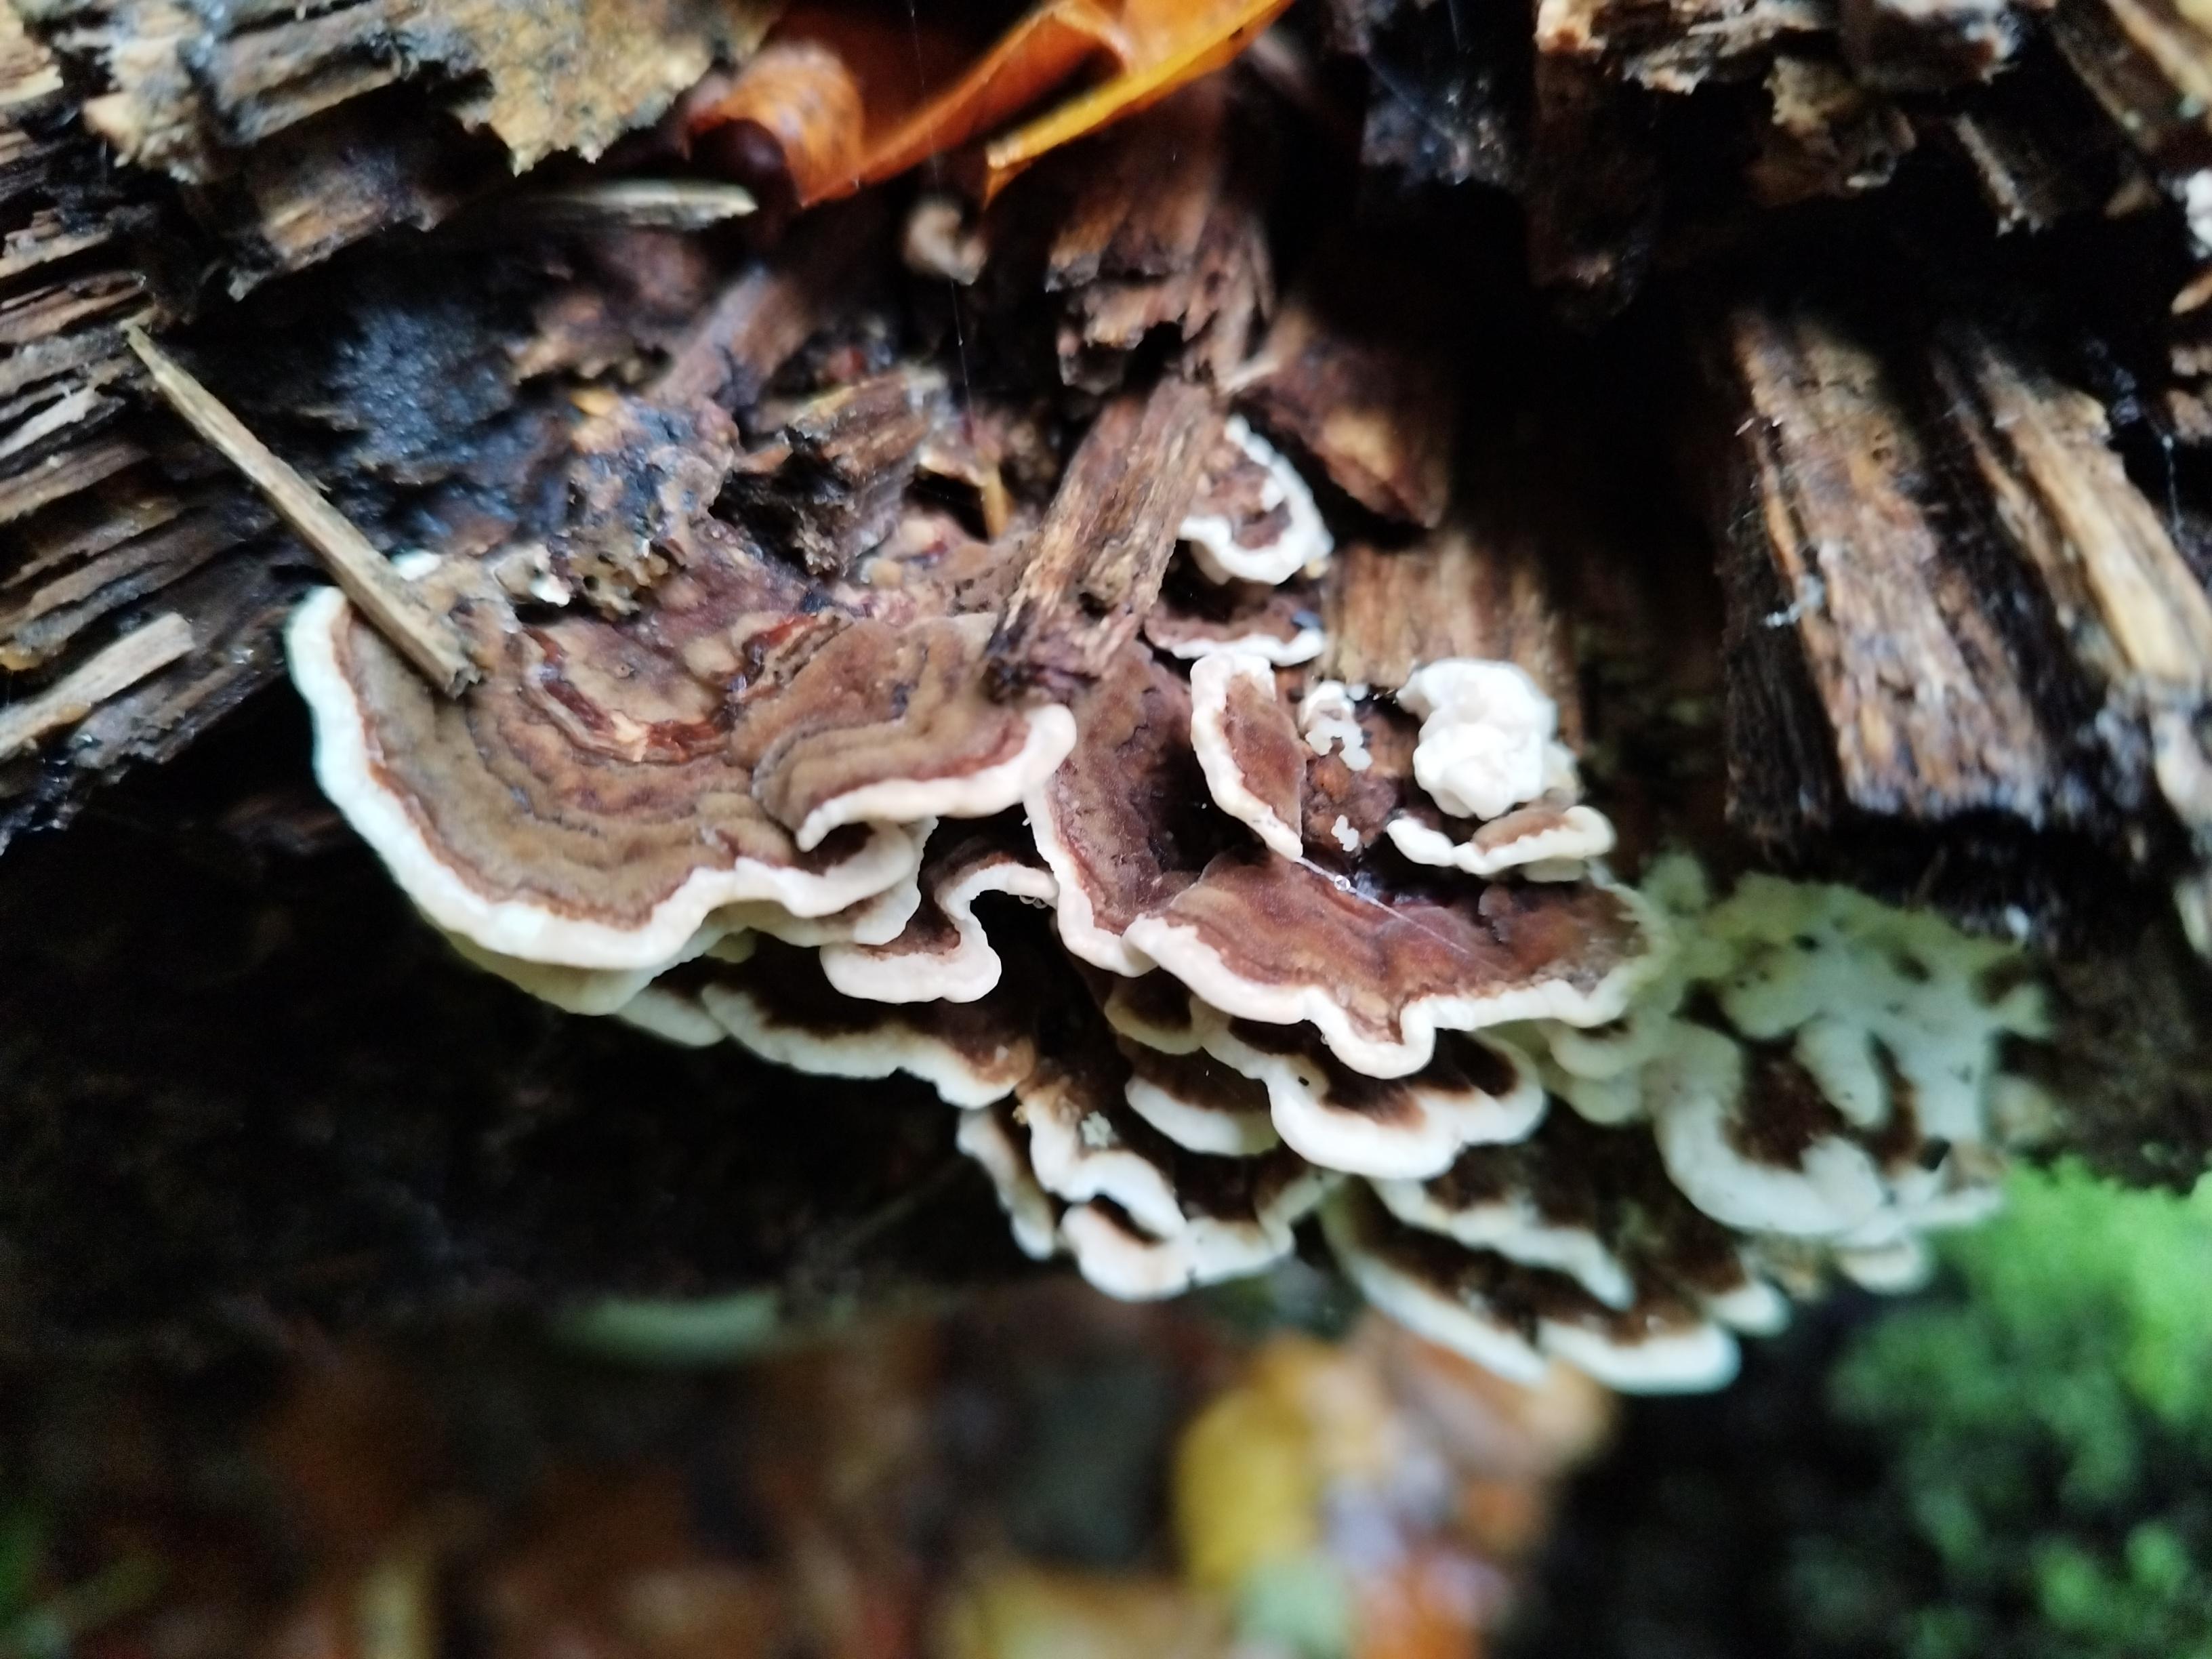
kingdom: Fungi
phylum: Basidiomycota
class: Agaricomycetes
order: Polyporales
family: Polyporaceae
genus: Trametes
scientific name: Trametes versicolor
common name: broget læderporesvamp
